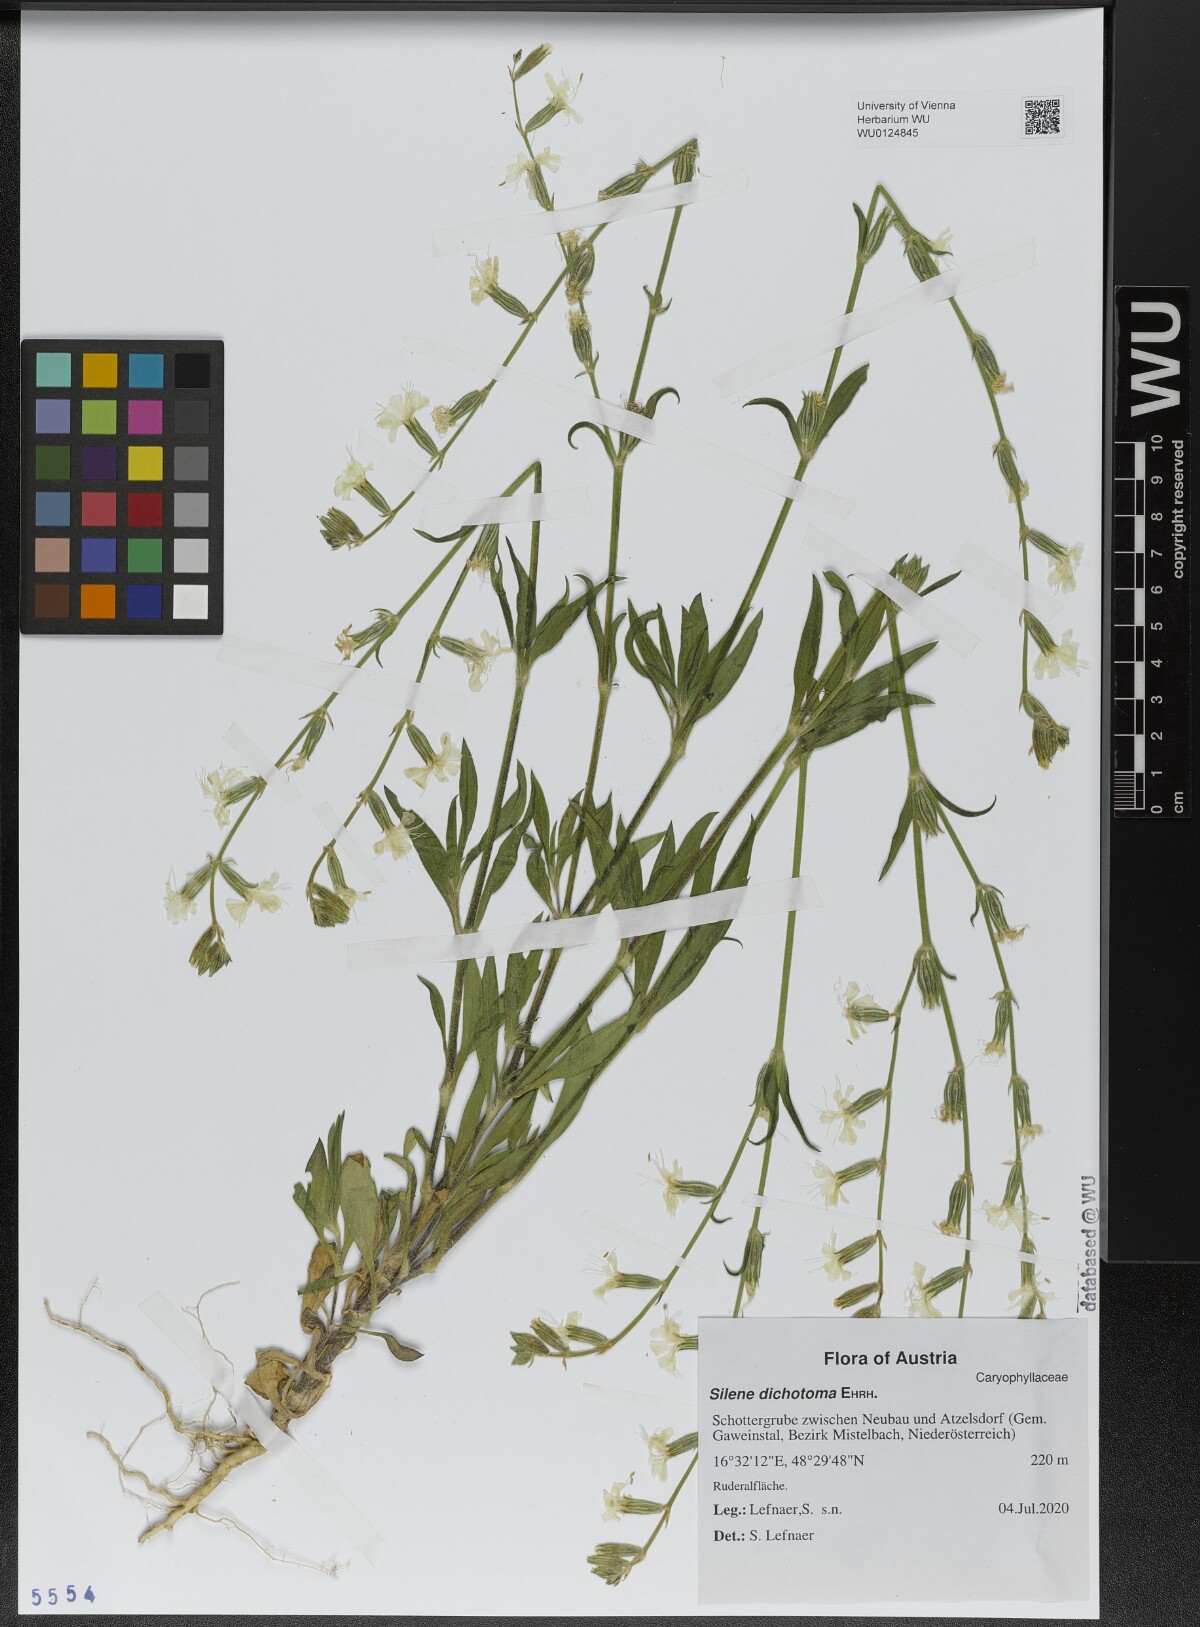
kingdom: Plantae
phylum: Tracheophyta
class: Magnoliopsida
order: Caryophyllales
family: Caryophyllaceae
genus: Silene
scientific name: Silene dichotoma
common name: Forked catchfly
